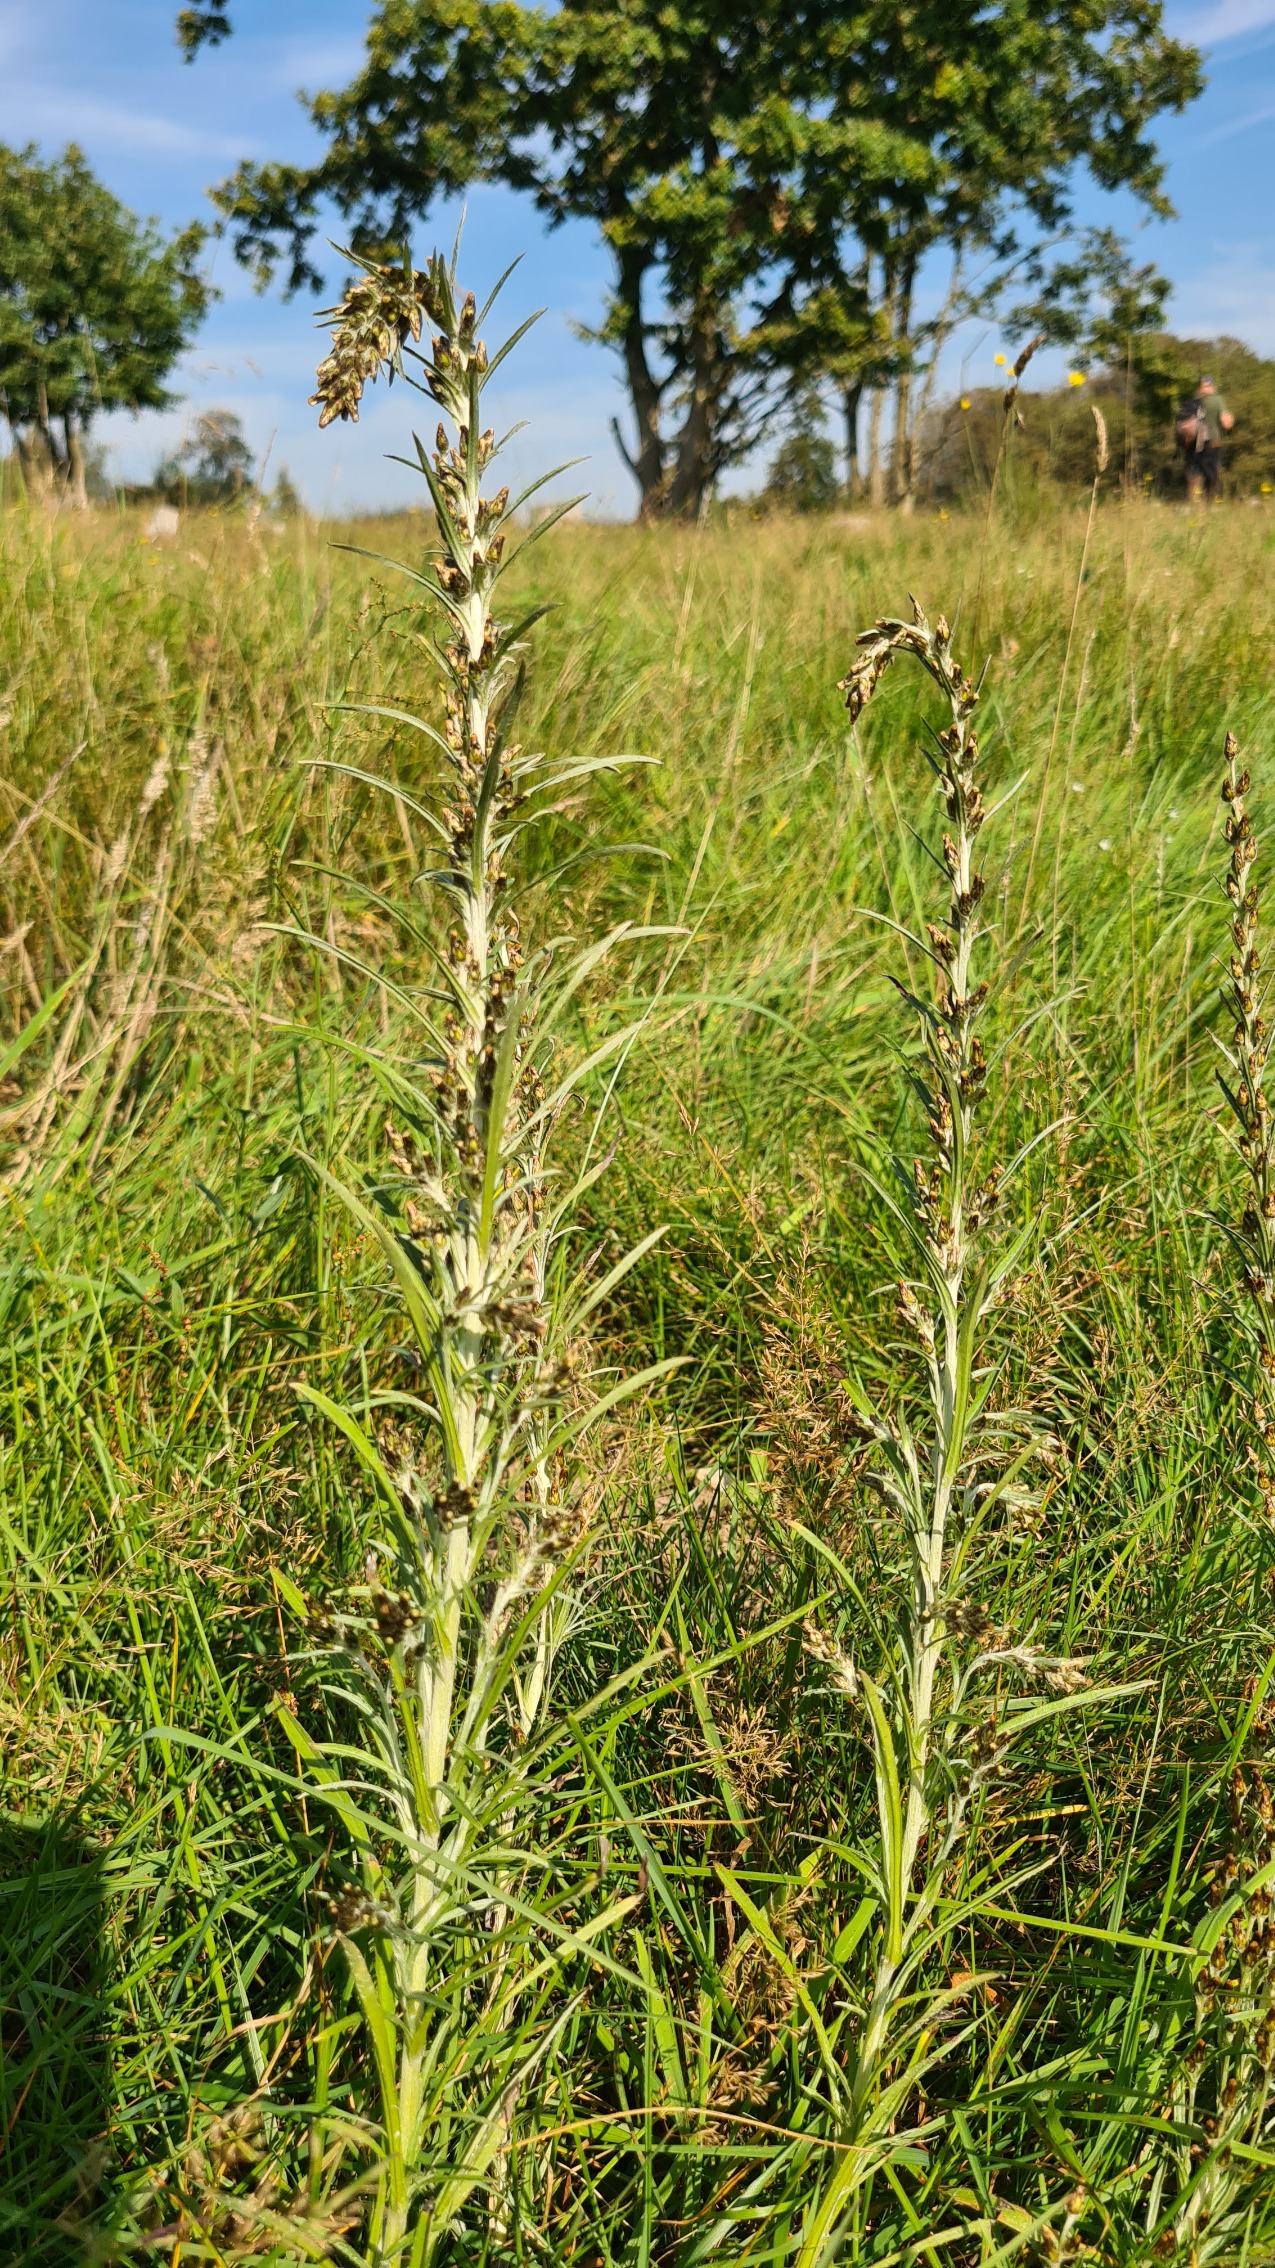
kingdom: Plantae
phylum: Tracheophyta
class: Magnoliopsida
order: Asterales
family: Asteraceae
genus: Omalotheca
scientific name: Omalotheca sylvatica
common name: Rank evighedsblomst
